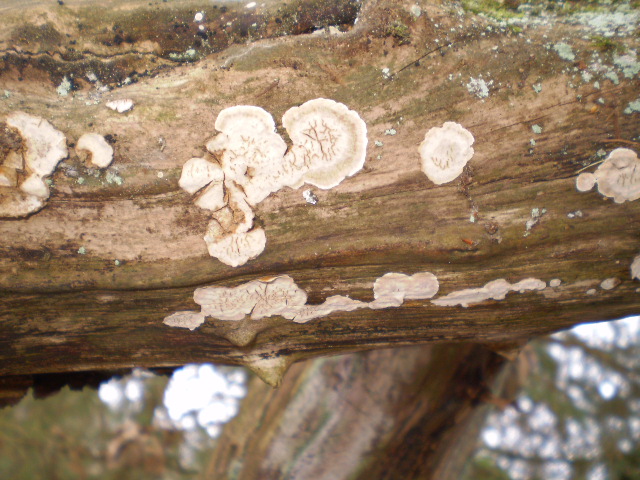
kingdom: Fungi
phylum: Basidiomycota
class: Agaricomycetes
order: Russulales
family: Stereaceae
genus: Stereum
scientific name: Stereum rugosum
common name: rynket lædersvamp
